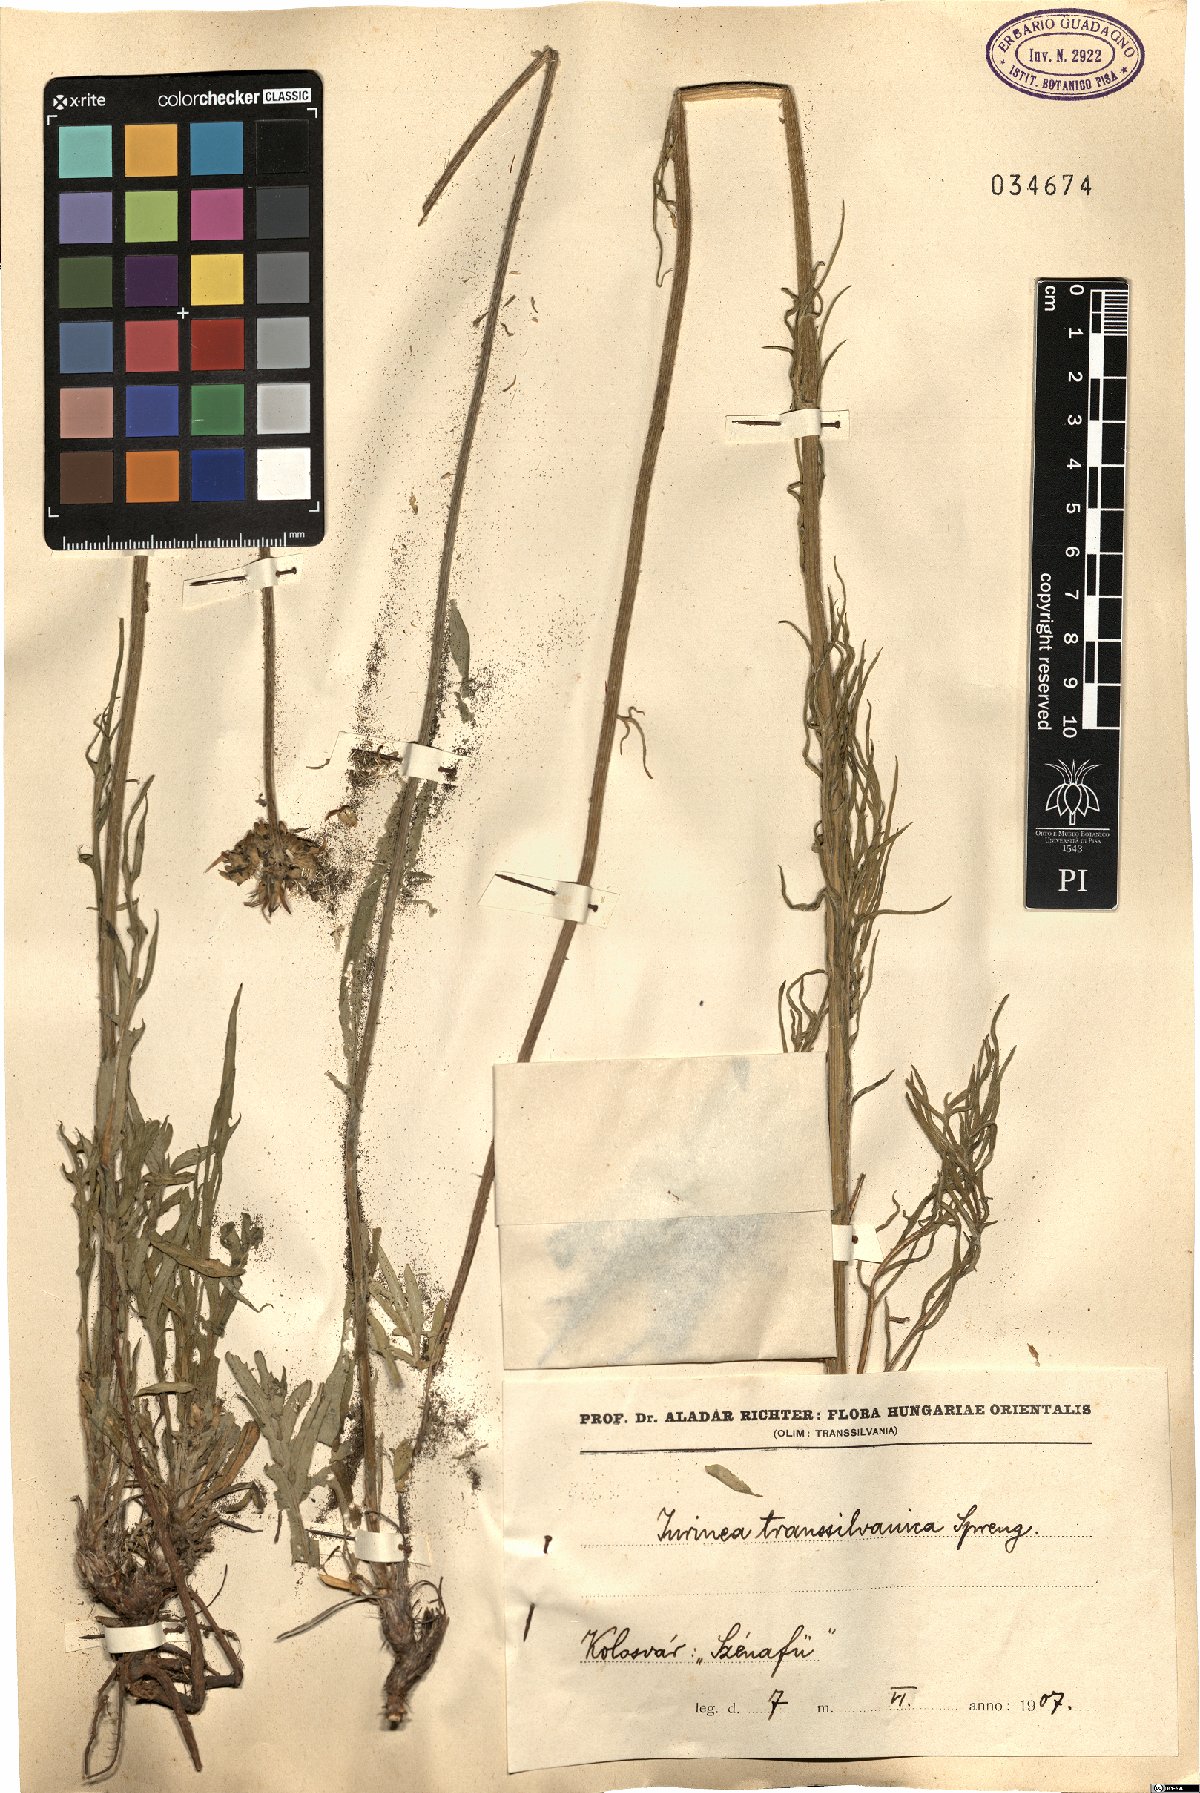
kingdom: Plantae
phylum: Tracheophyta
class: Magnoliopsida
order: Asterales
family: Asteraceae
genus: Jurinea
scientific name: Jurinea transsylvanica
